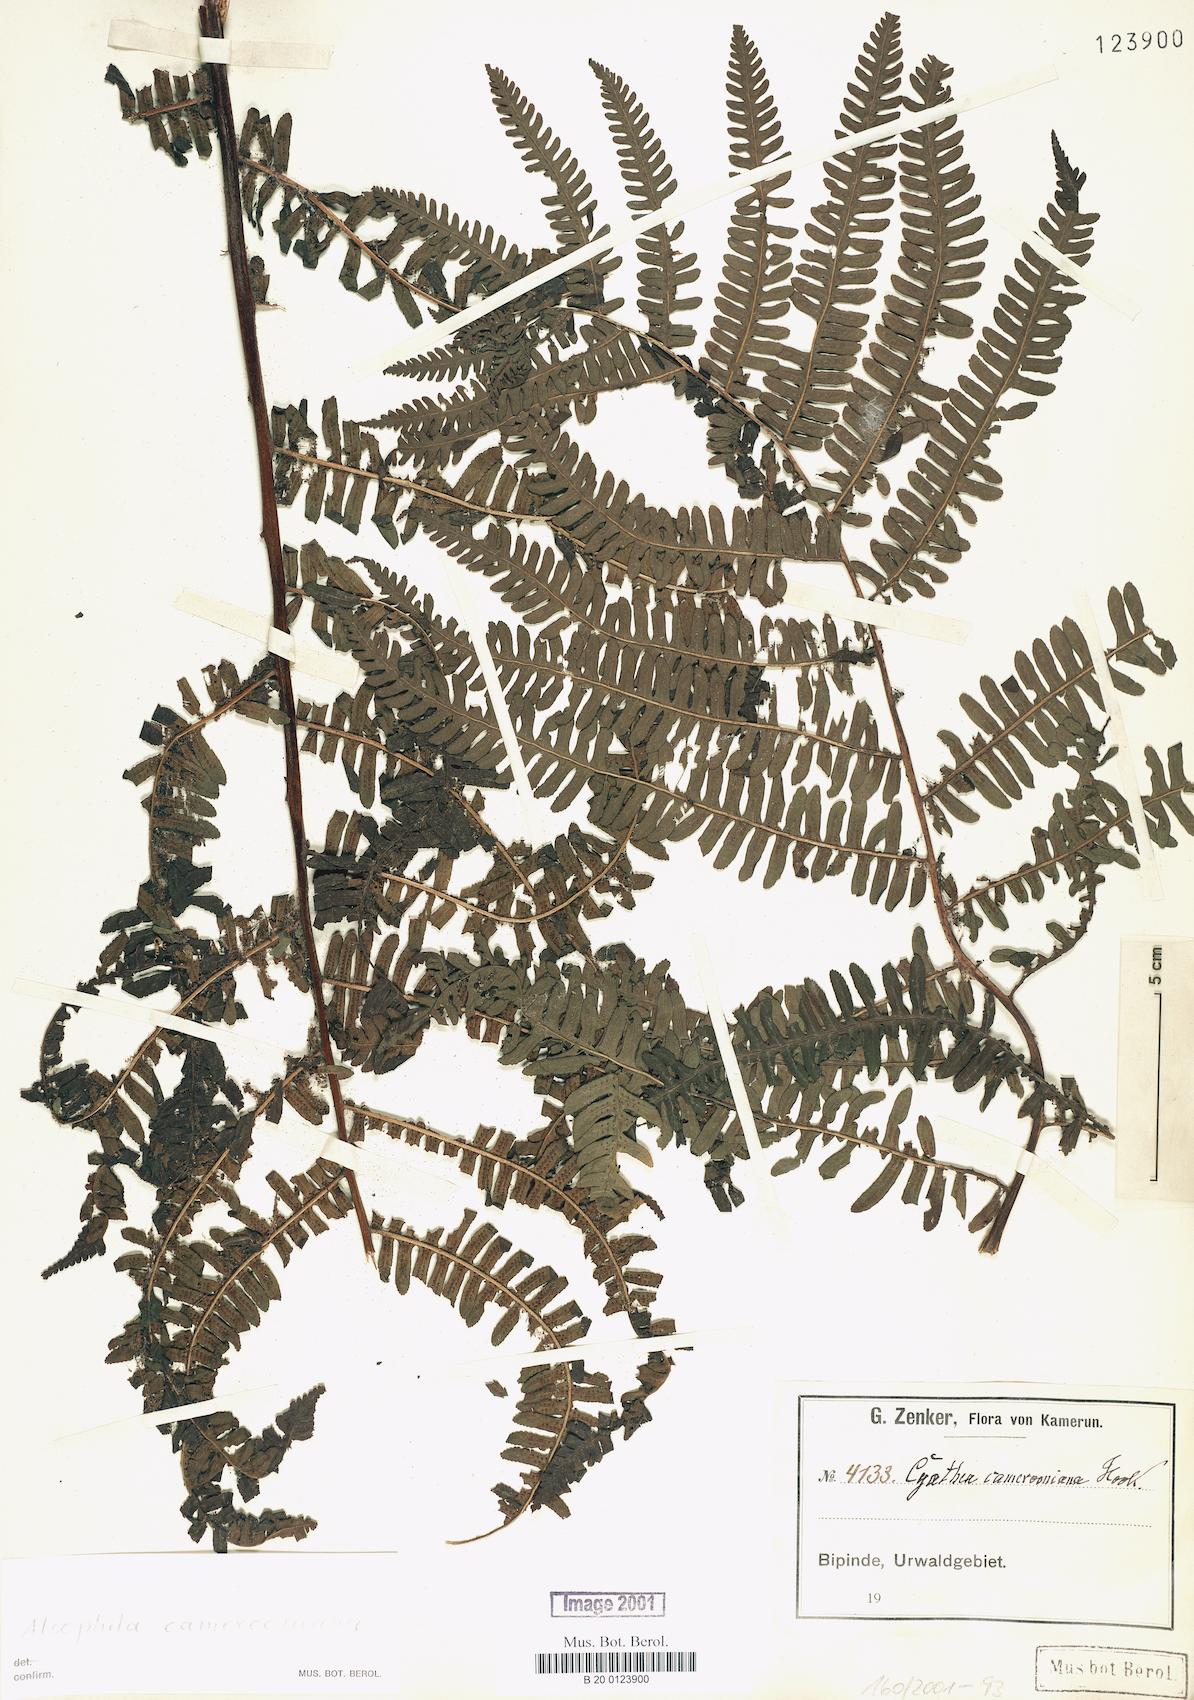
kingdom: Plantae
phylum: Tracheophyta
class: Polypodiopsida
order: Cyatheales
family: Cyatheaceae
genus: Alsophila
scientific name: Alsophila camerooniana
